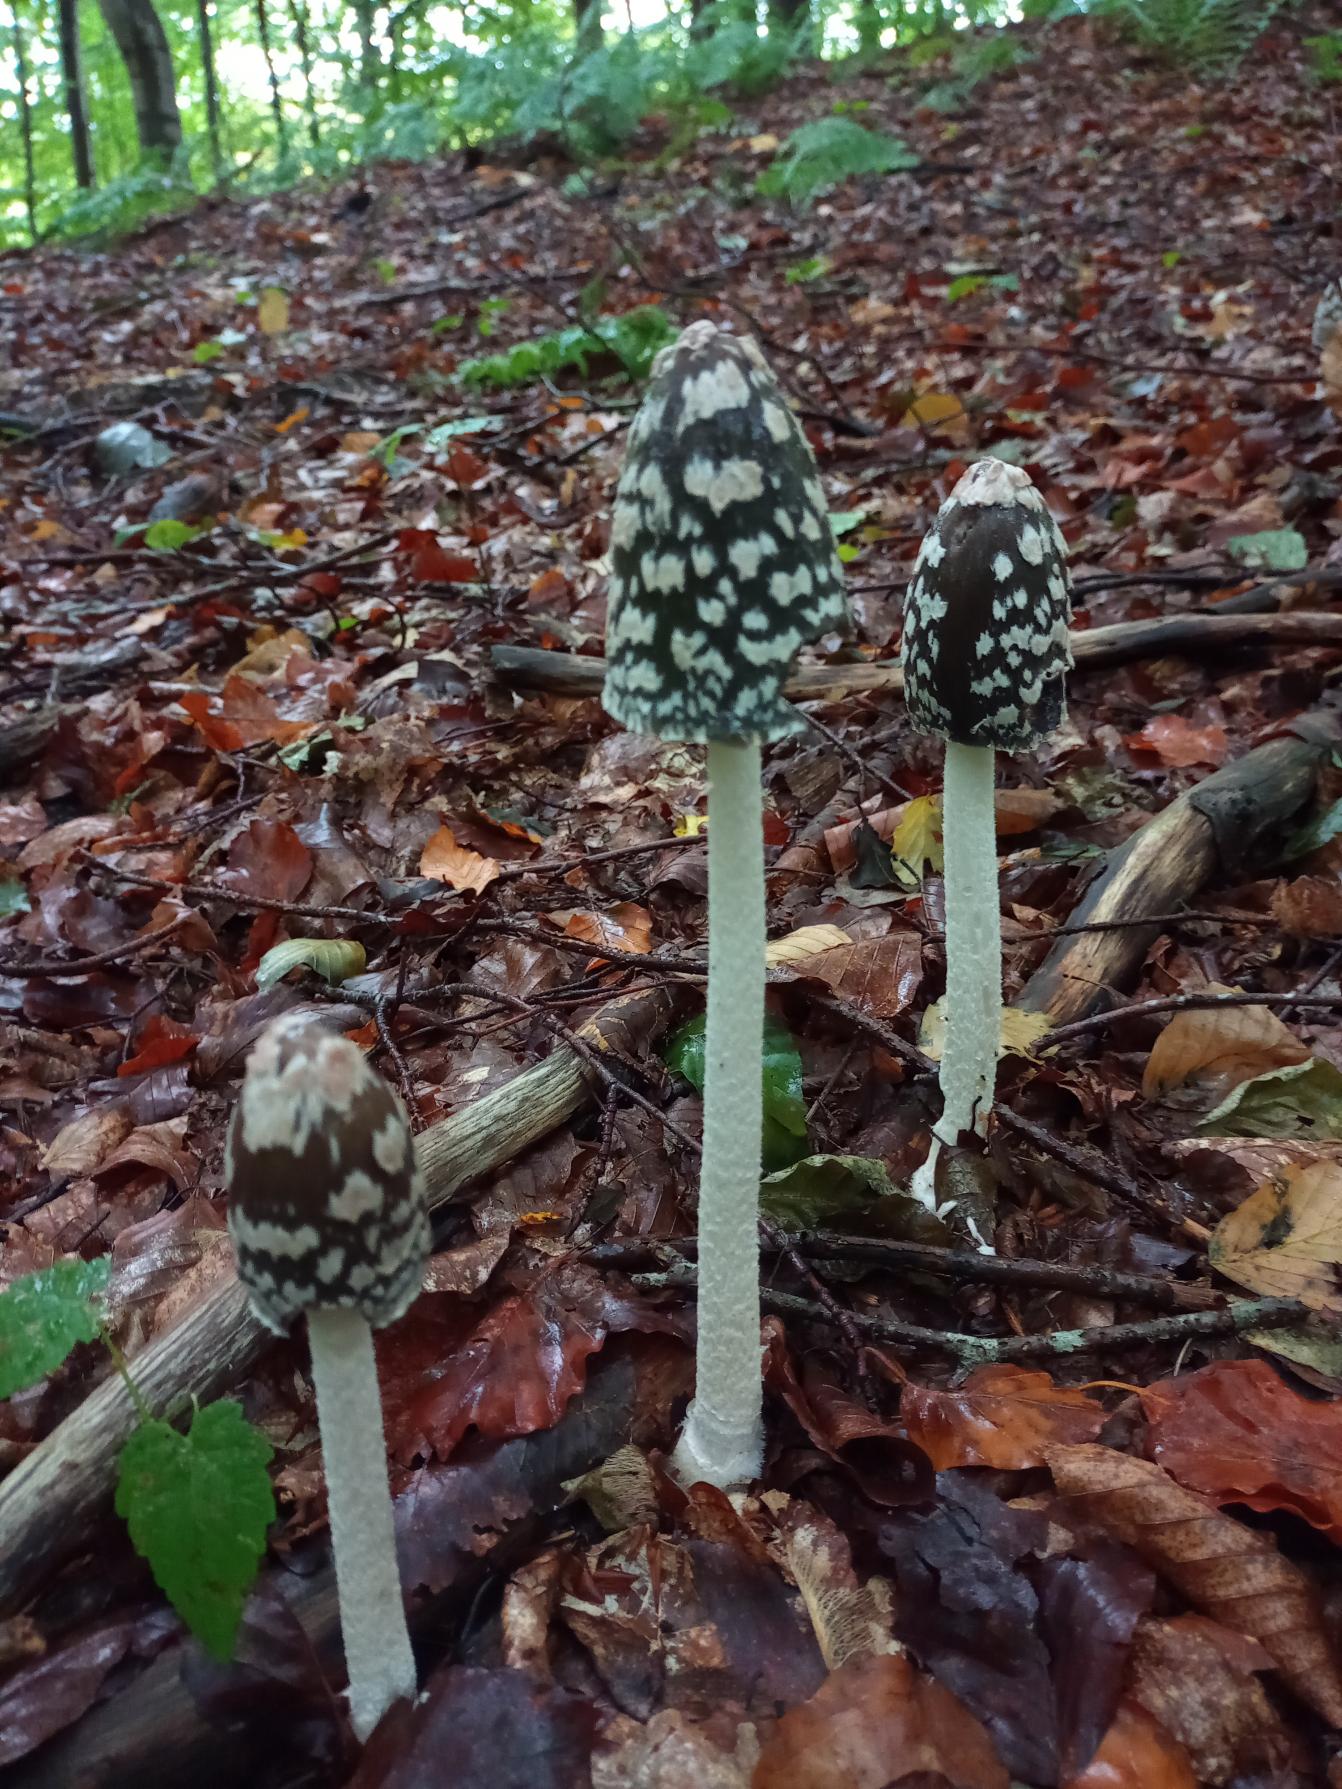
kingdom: Fungi
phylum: Basidiomycota
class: Agaricomycetes
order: Agaricales
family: Psathyrellaceae
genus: Coprinopsis
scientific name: Coprinopsis picacea
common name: Skade-blækhat
